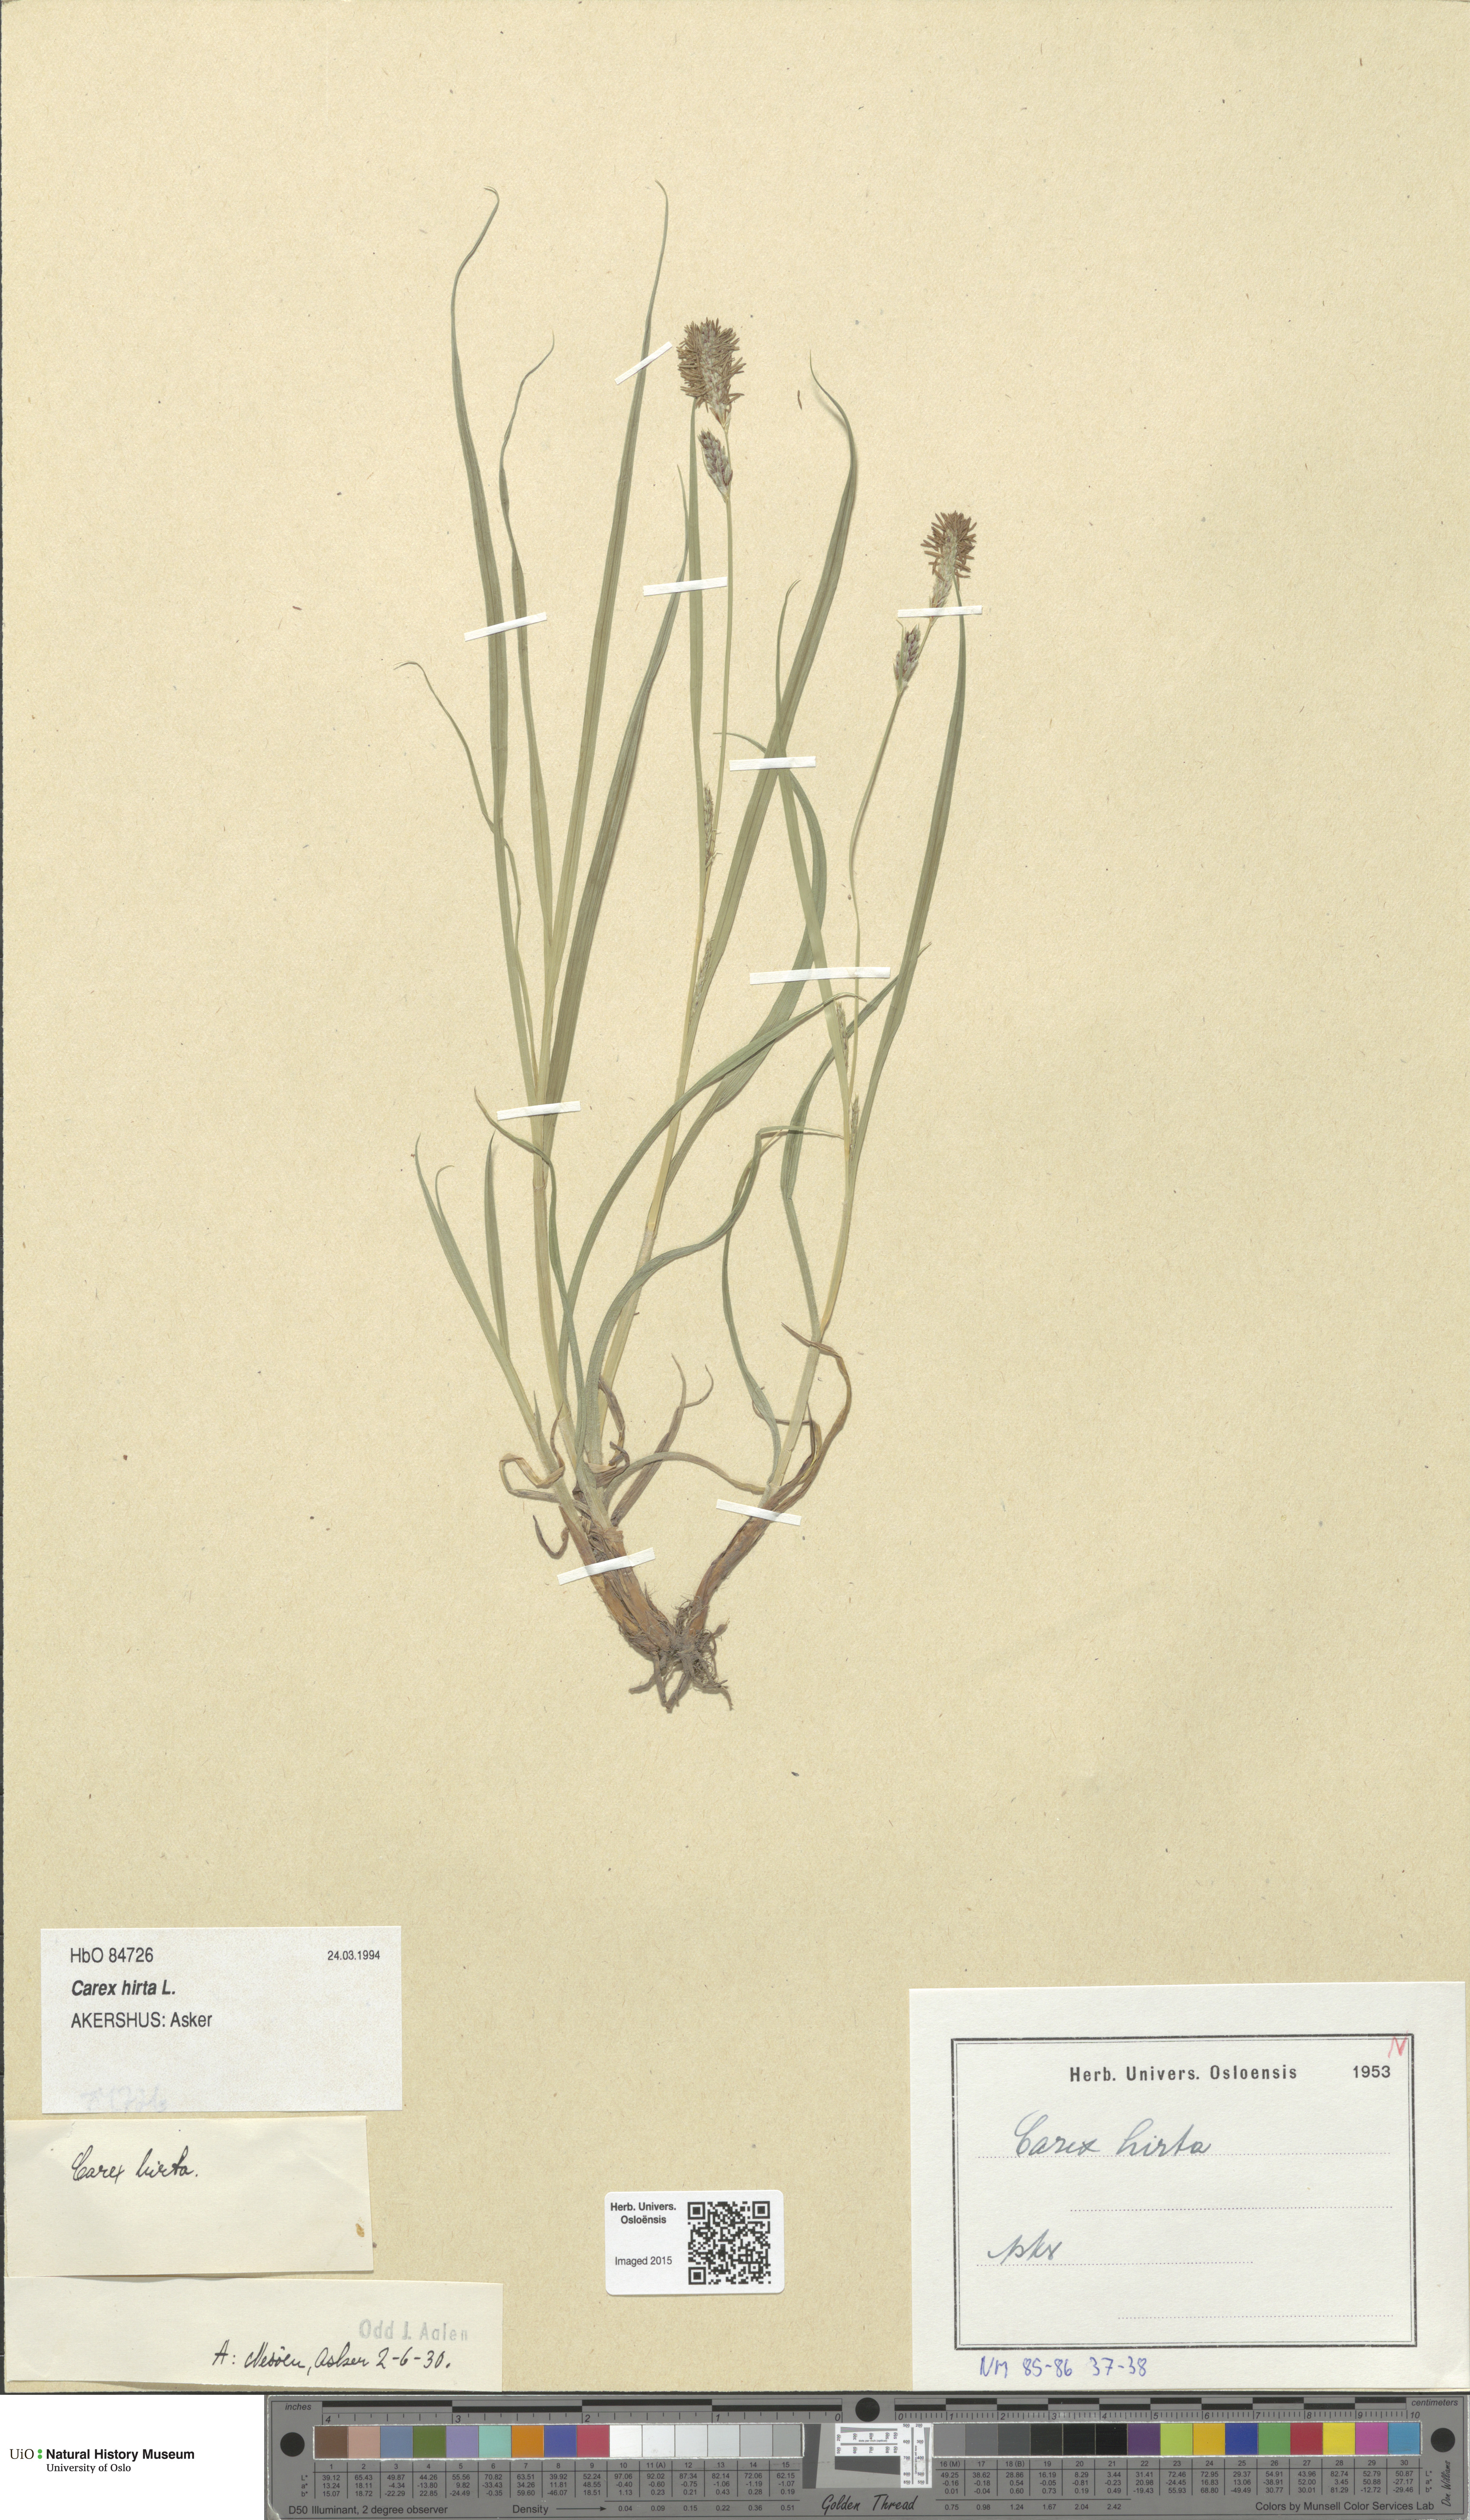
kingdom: Plantae
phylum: Tracheophyta
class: Liliopsida
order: Poales
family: Cyperaceae
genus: Carex
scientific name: Carex hirta
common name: Hairy sedge
